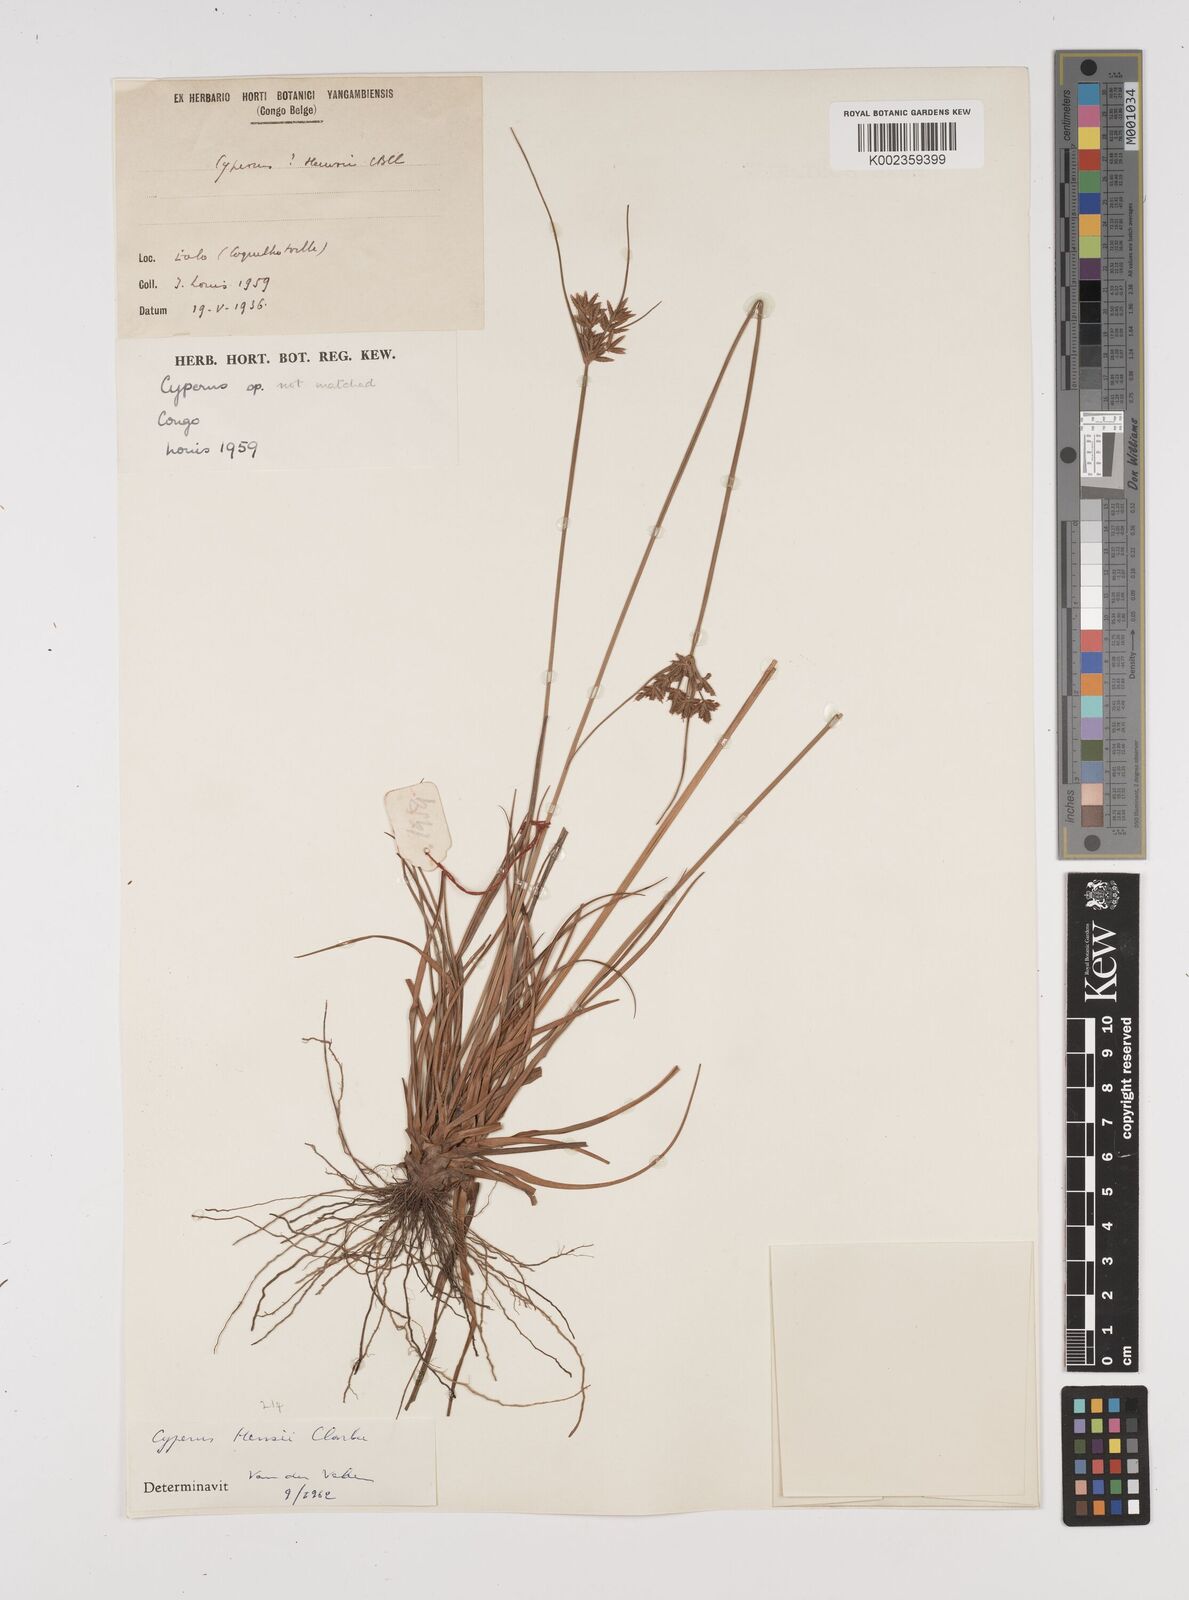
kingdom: Plantae
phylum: Tracheophyta
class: Liliopsida
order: Poales
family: Cyperaceae
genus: Cyperus
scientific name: Cyperus
